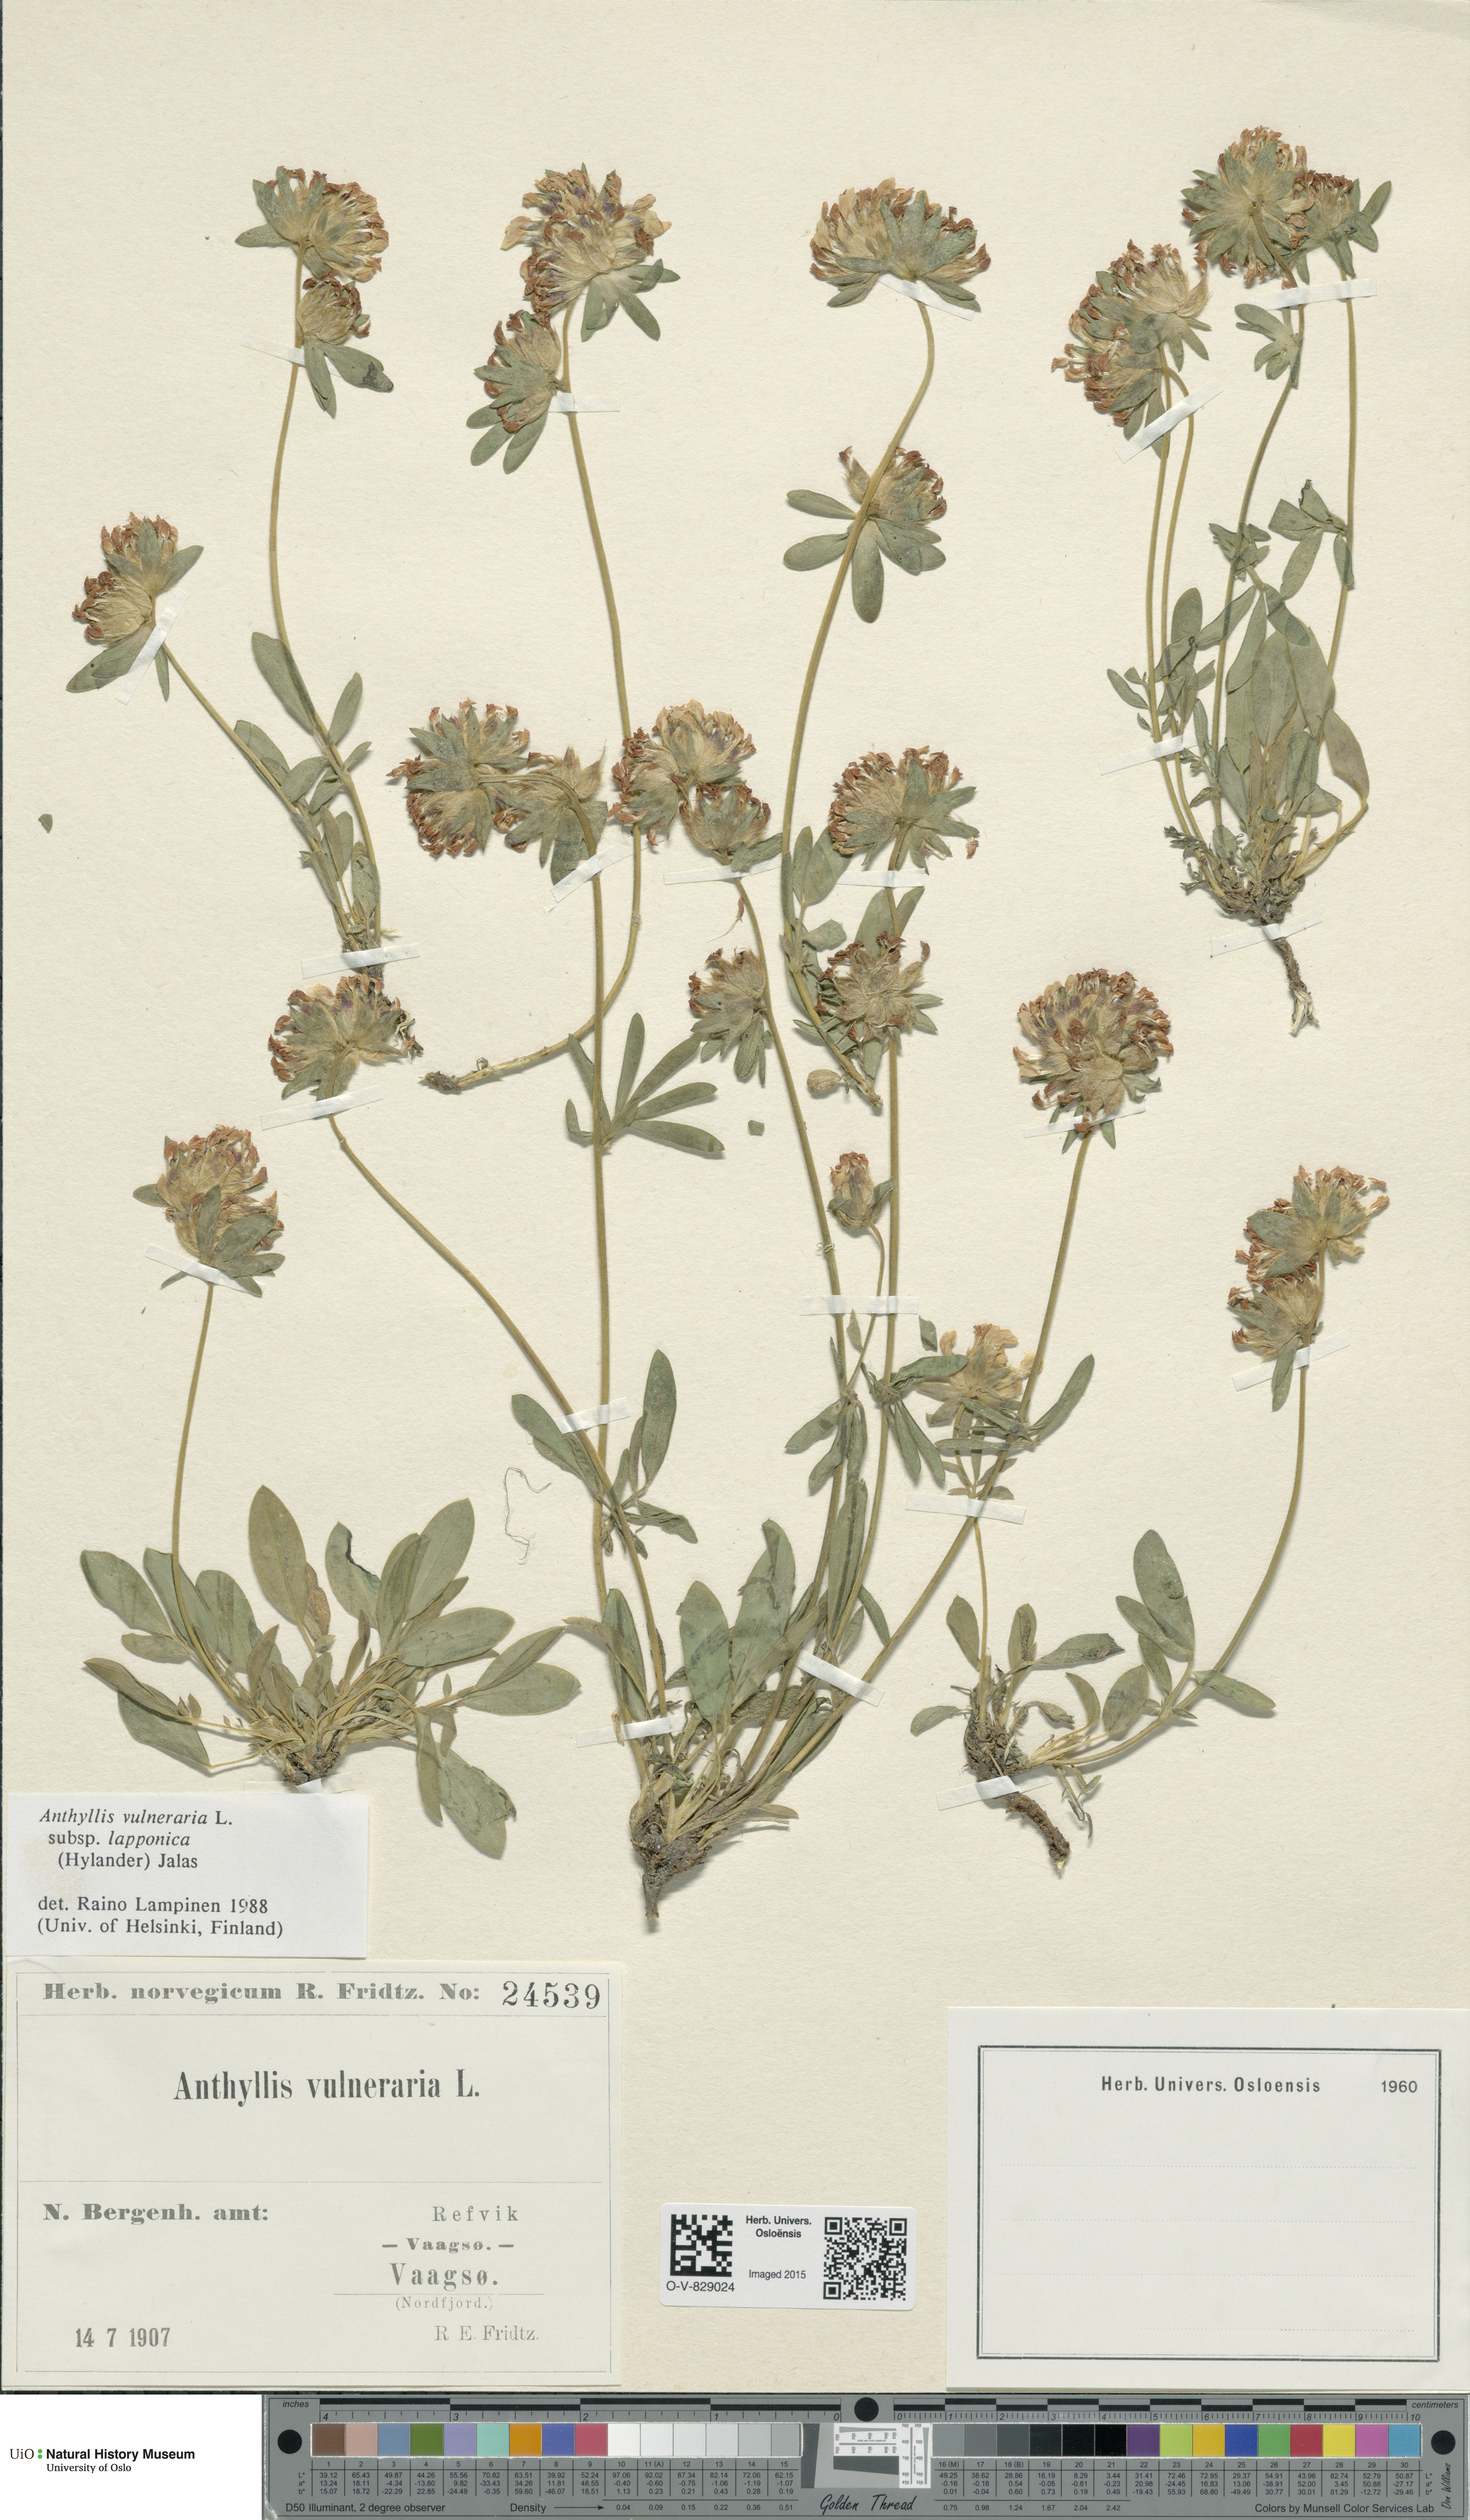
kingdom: Plantae
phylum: Tracheophyta
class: Magnoliopsida
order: Fabales
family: Fabaceae
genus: Anthyllis
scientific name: Anthyllis vulneraria
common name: Kidney vetch
